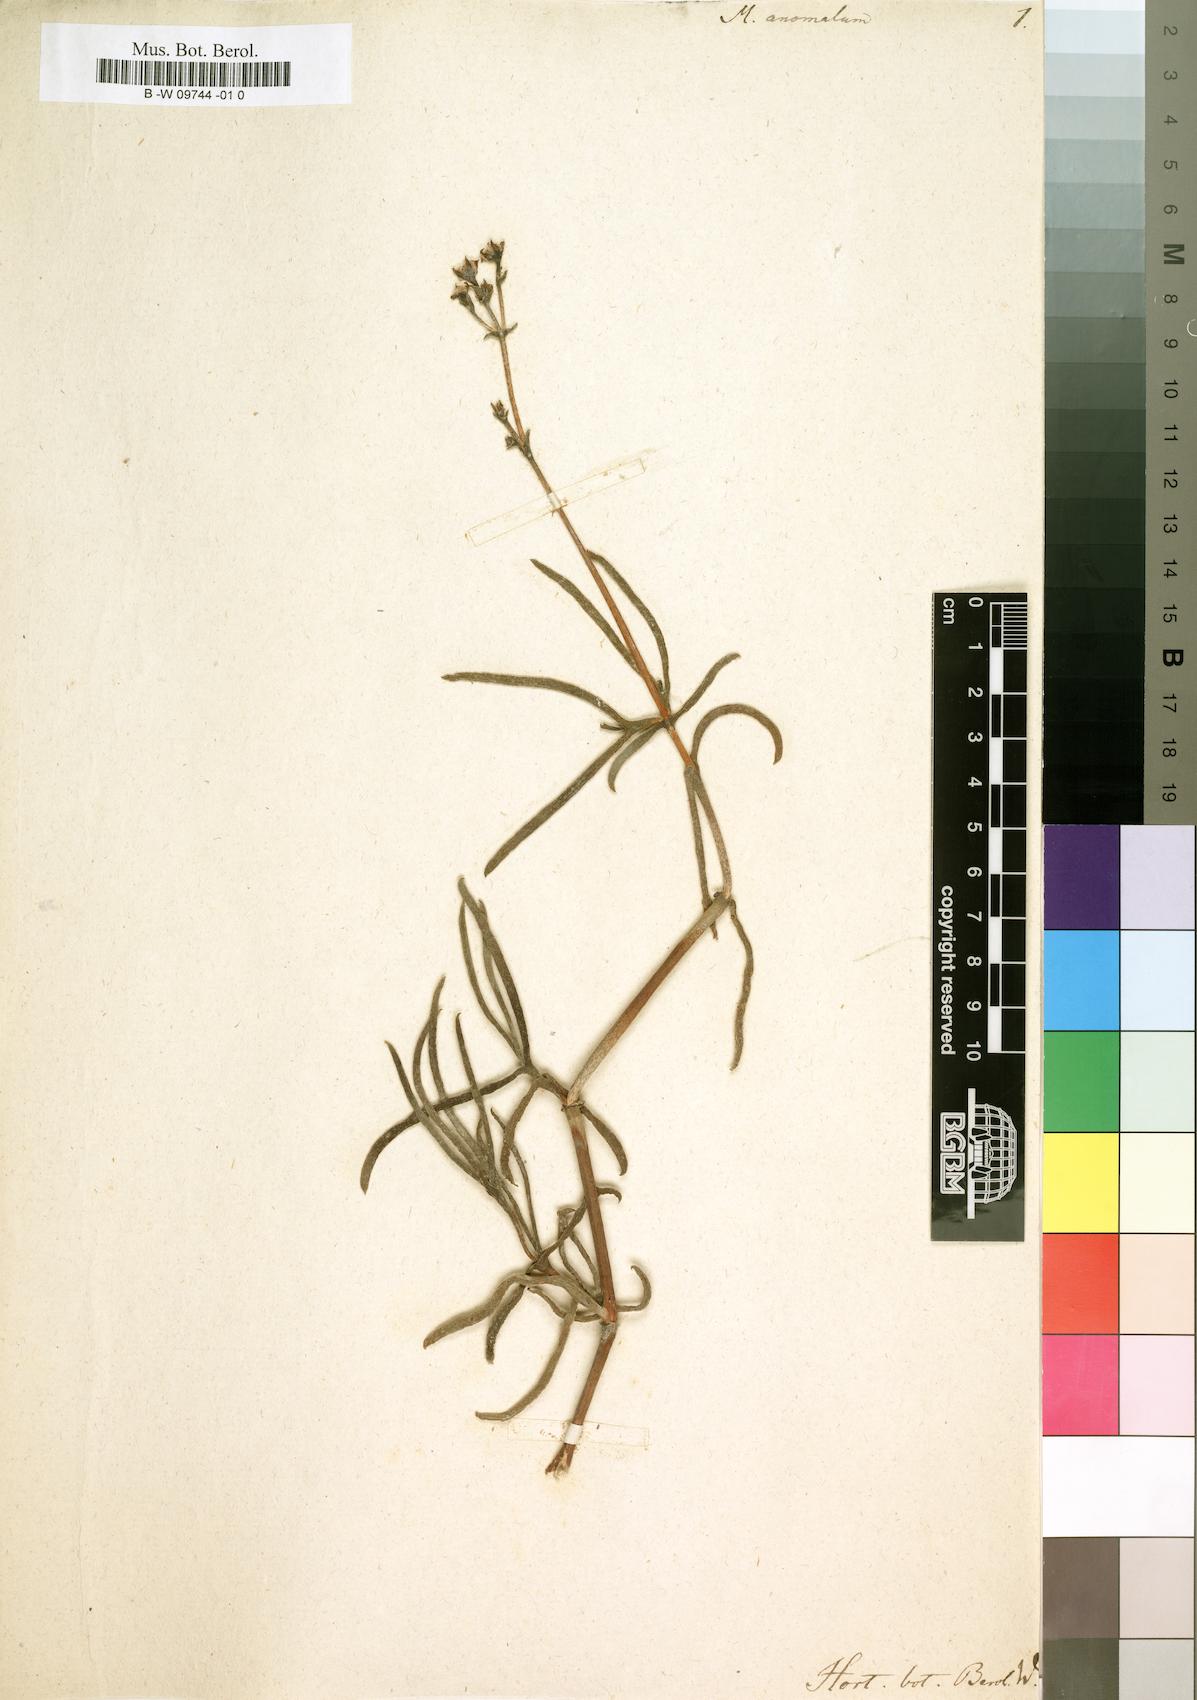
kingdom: Plantae
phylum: Tracheophyta
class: Magnoliopsida
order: Caryophyllales
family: Aizoaceae
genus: Ruschia
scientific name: Ruschia umbellata
